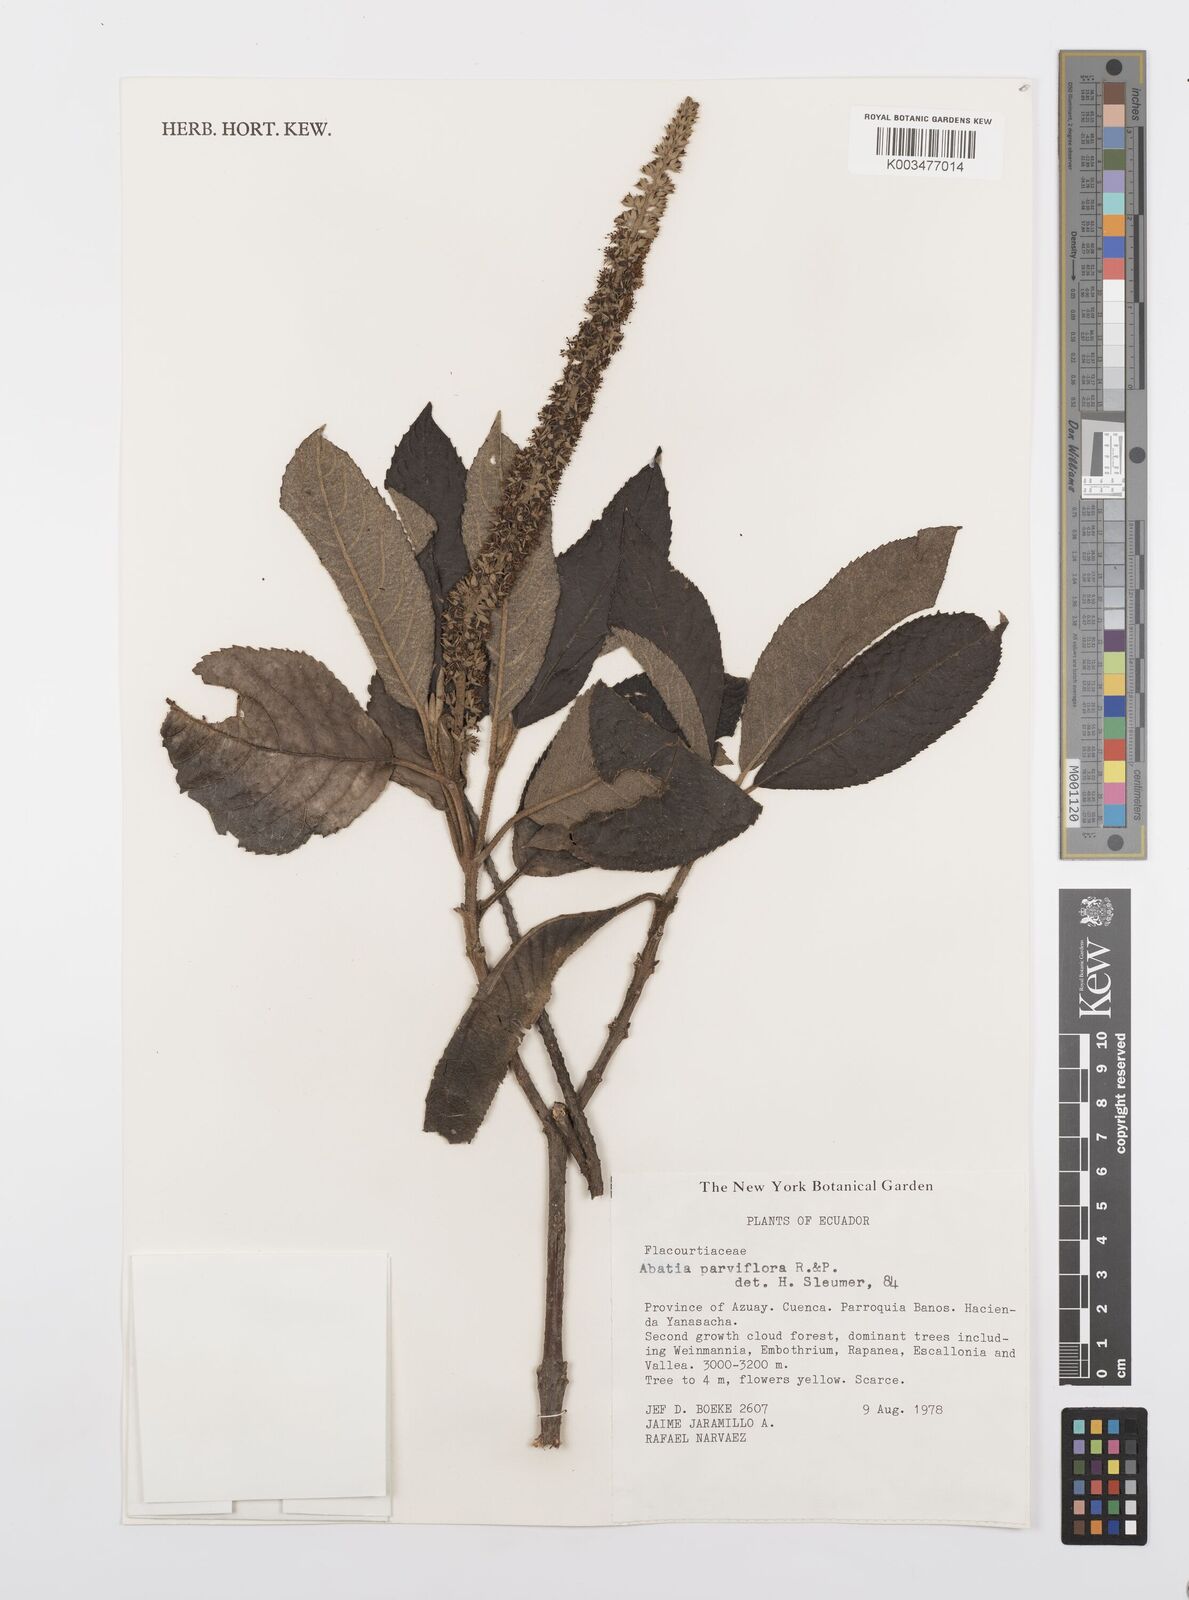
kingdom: Plantae
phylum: Tracheophyta
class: Magnoliopsida
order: Malpighiales
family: Salicaceae
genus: Abatia
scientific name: Abatia parviflora
